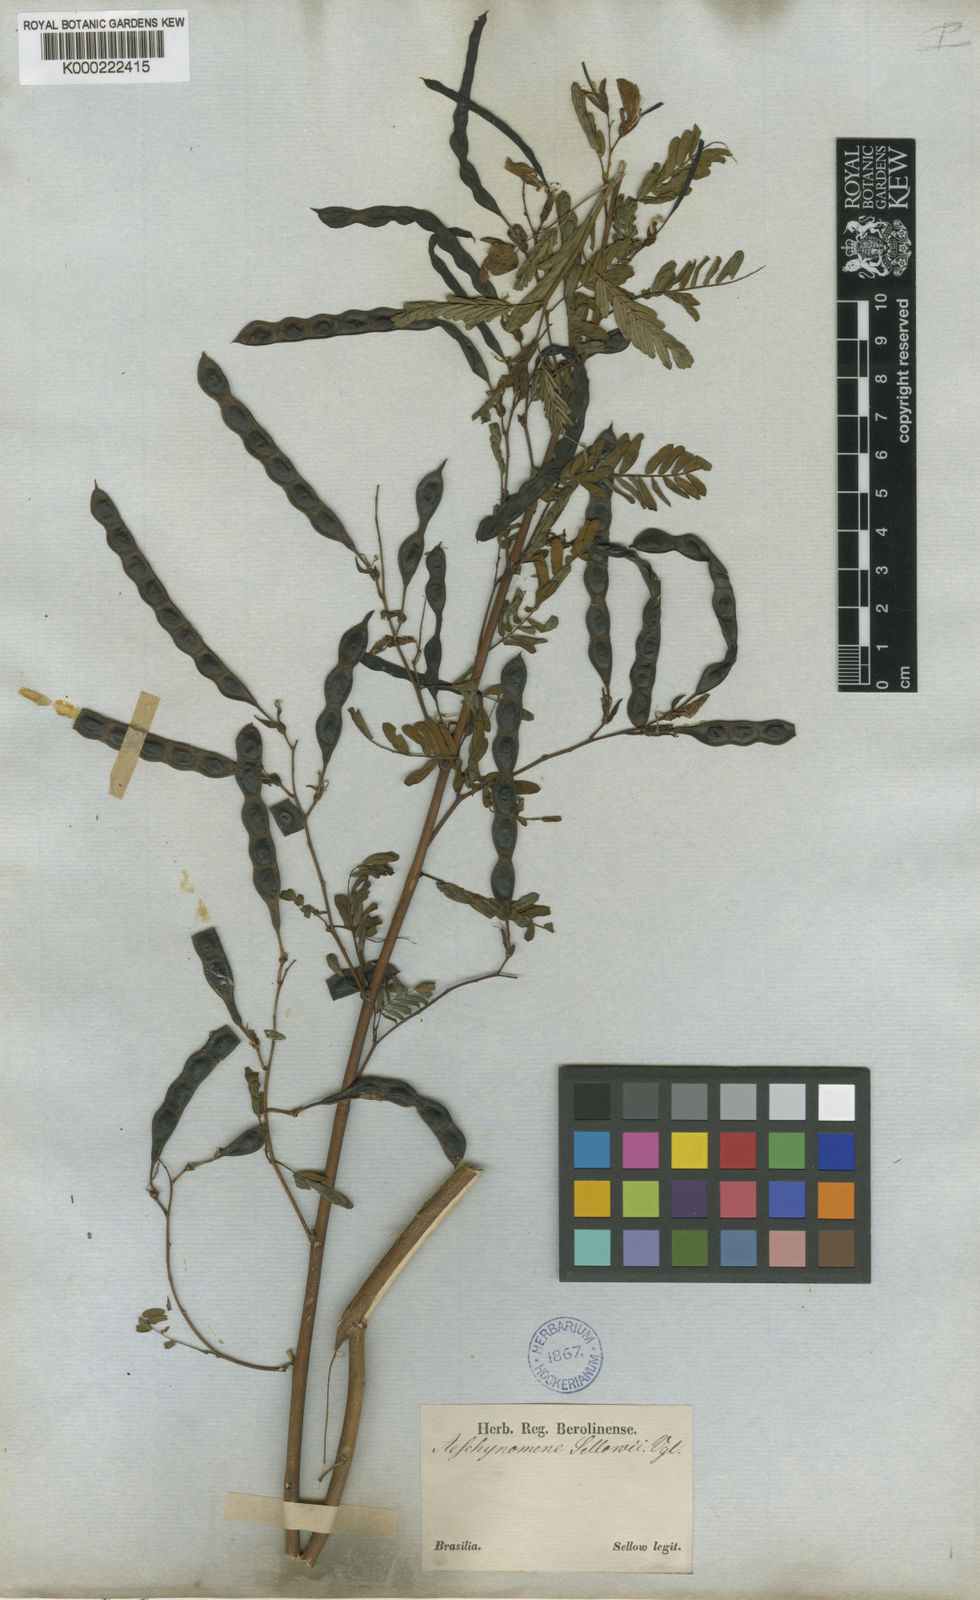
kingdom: Plantae
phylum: Tracheophyta
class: Magnoliopsida
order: Fabales
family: Fabaceae
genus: Aeschynomene
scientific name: Aeschynomene selloi
